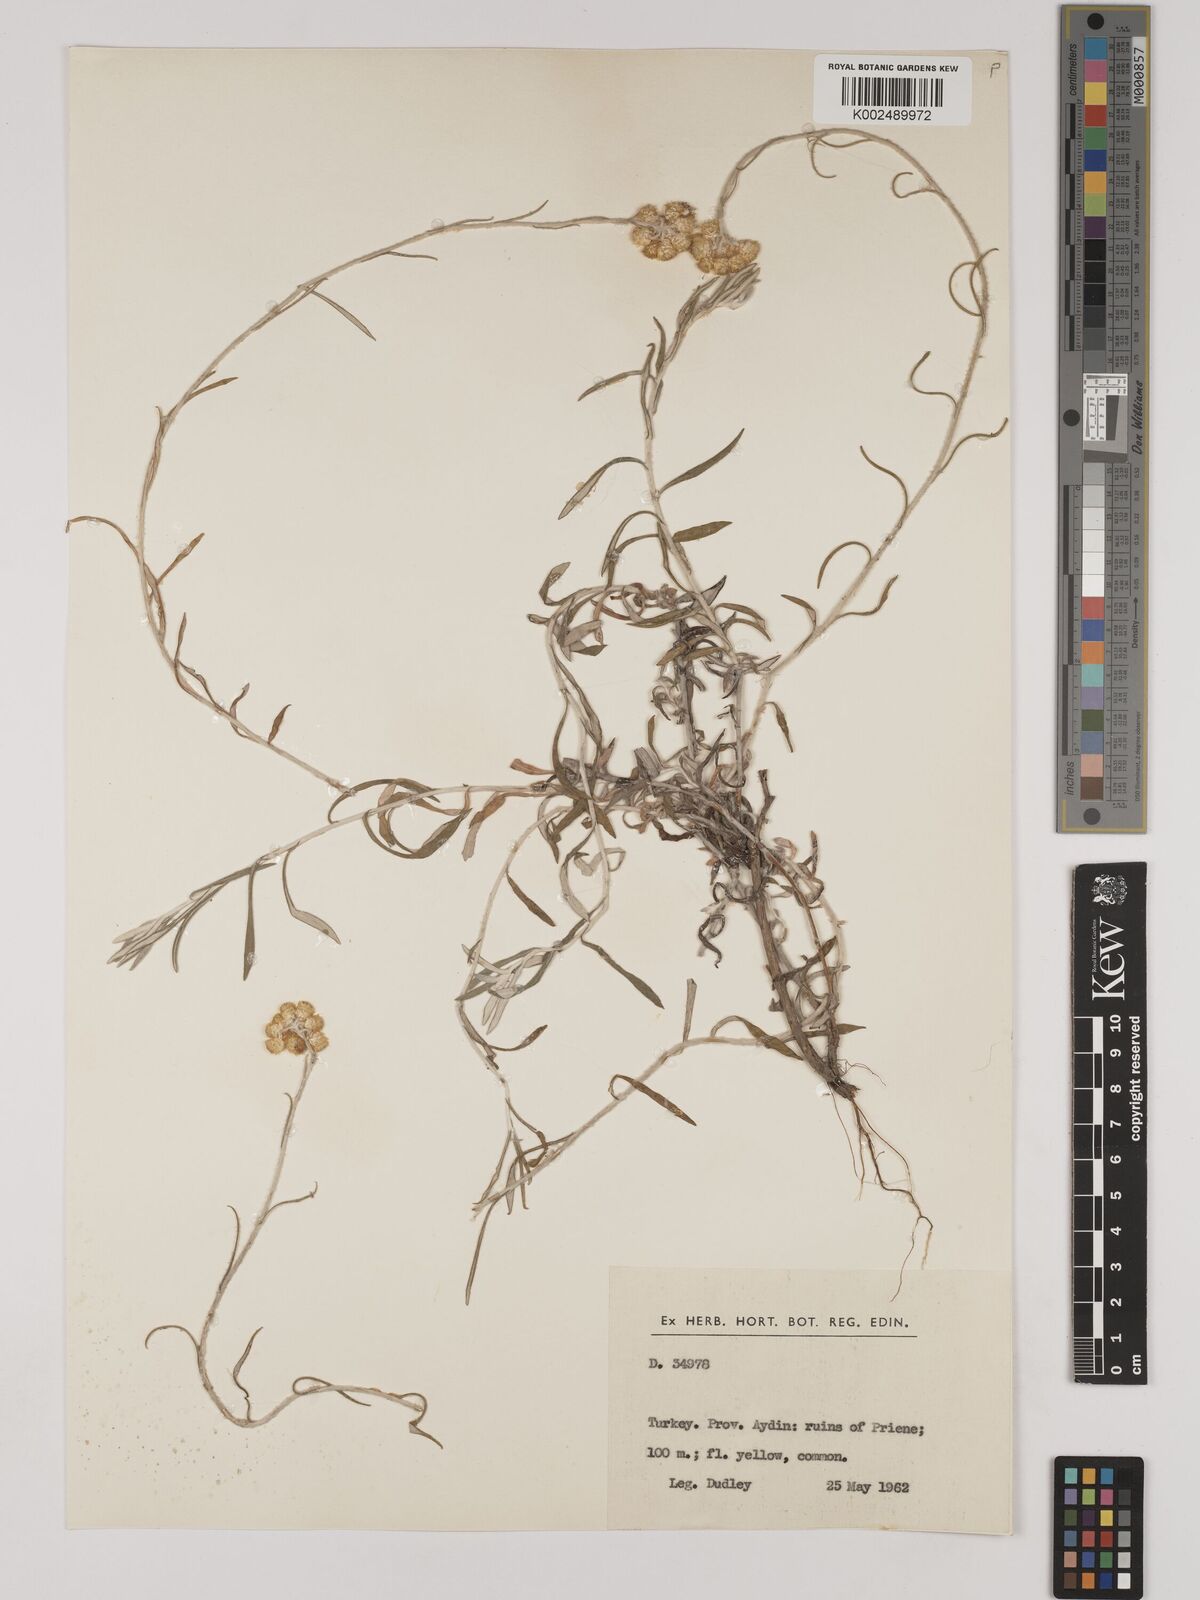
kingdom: Plantae
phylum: Tracheophyta
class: Magnoliopsida
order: Asterales
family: Asteraceae
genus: Helichrysum
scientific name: Helichrysum stoechas
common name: Goldilocks
